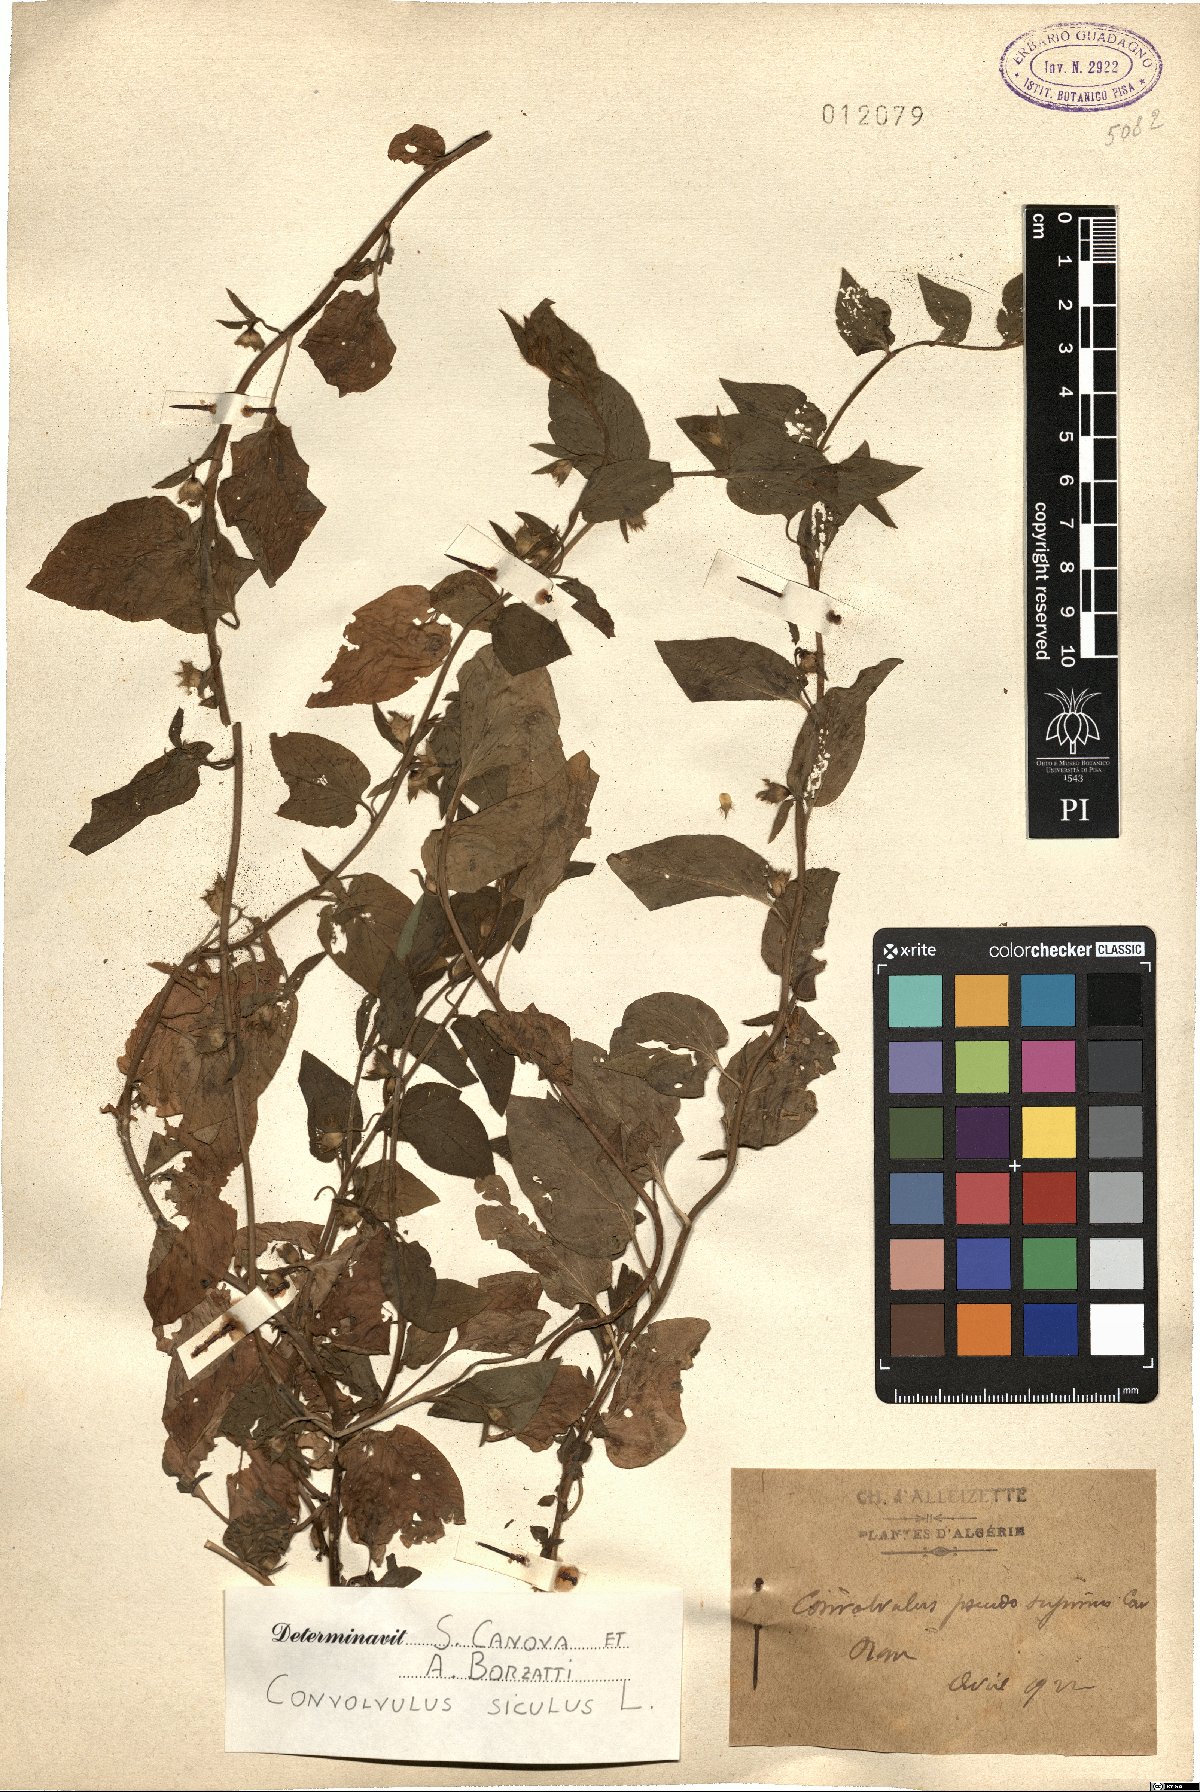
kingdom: Plantae
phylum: Tracheophyta
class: Magnoliopsida
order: Solanales
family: Convolvulaceae
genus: Convolvulus
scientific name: Convolvulus siculus
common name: Small blue-convolvulus
